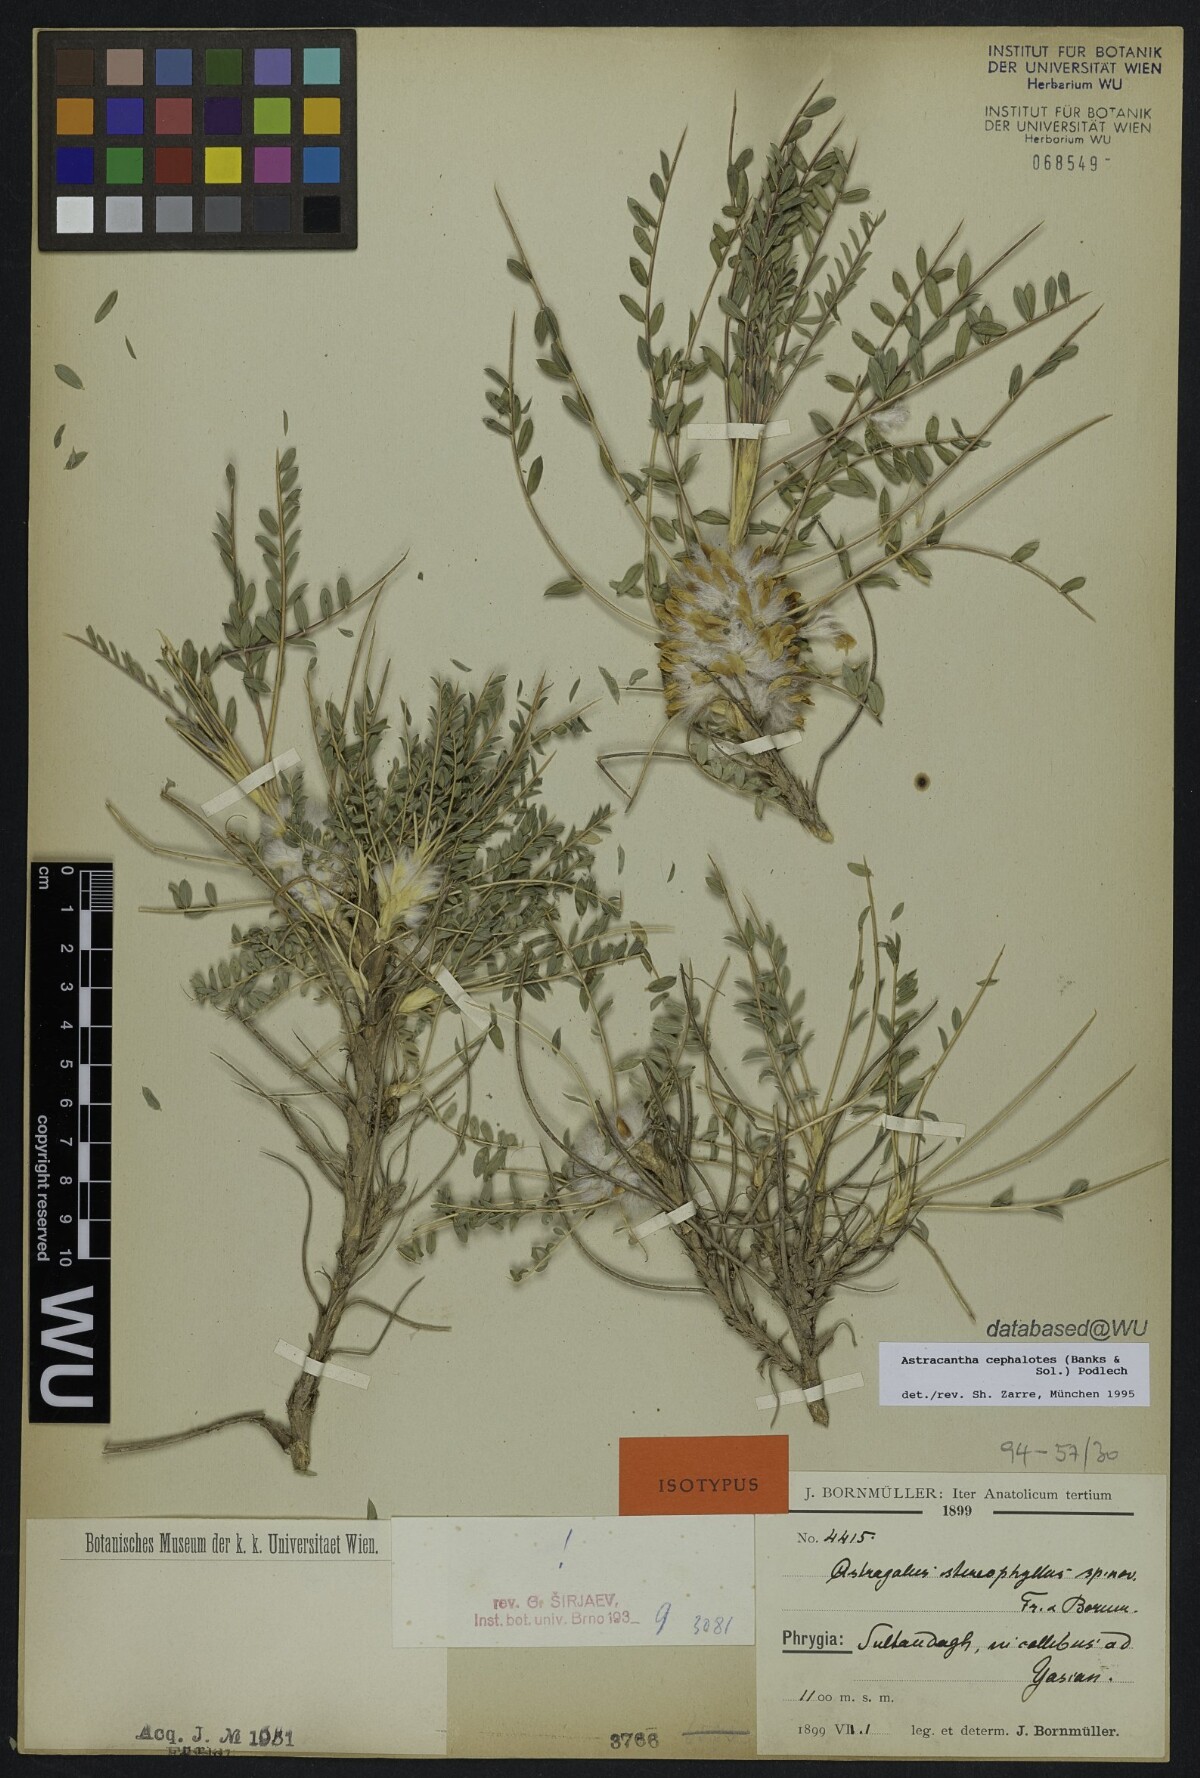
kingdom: Plantae
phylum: Tracheophyta
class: Magnoliopsida
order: Fabales
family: Fabaceae
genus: Astragalus
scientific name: Astragalus cephalotes
